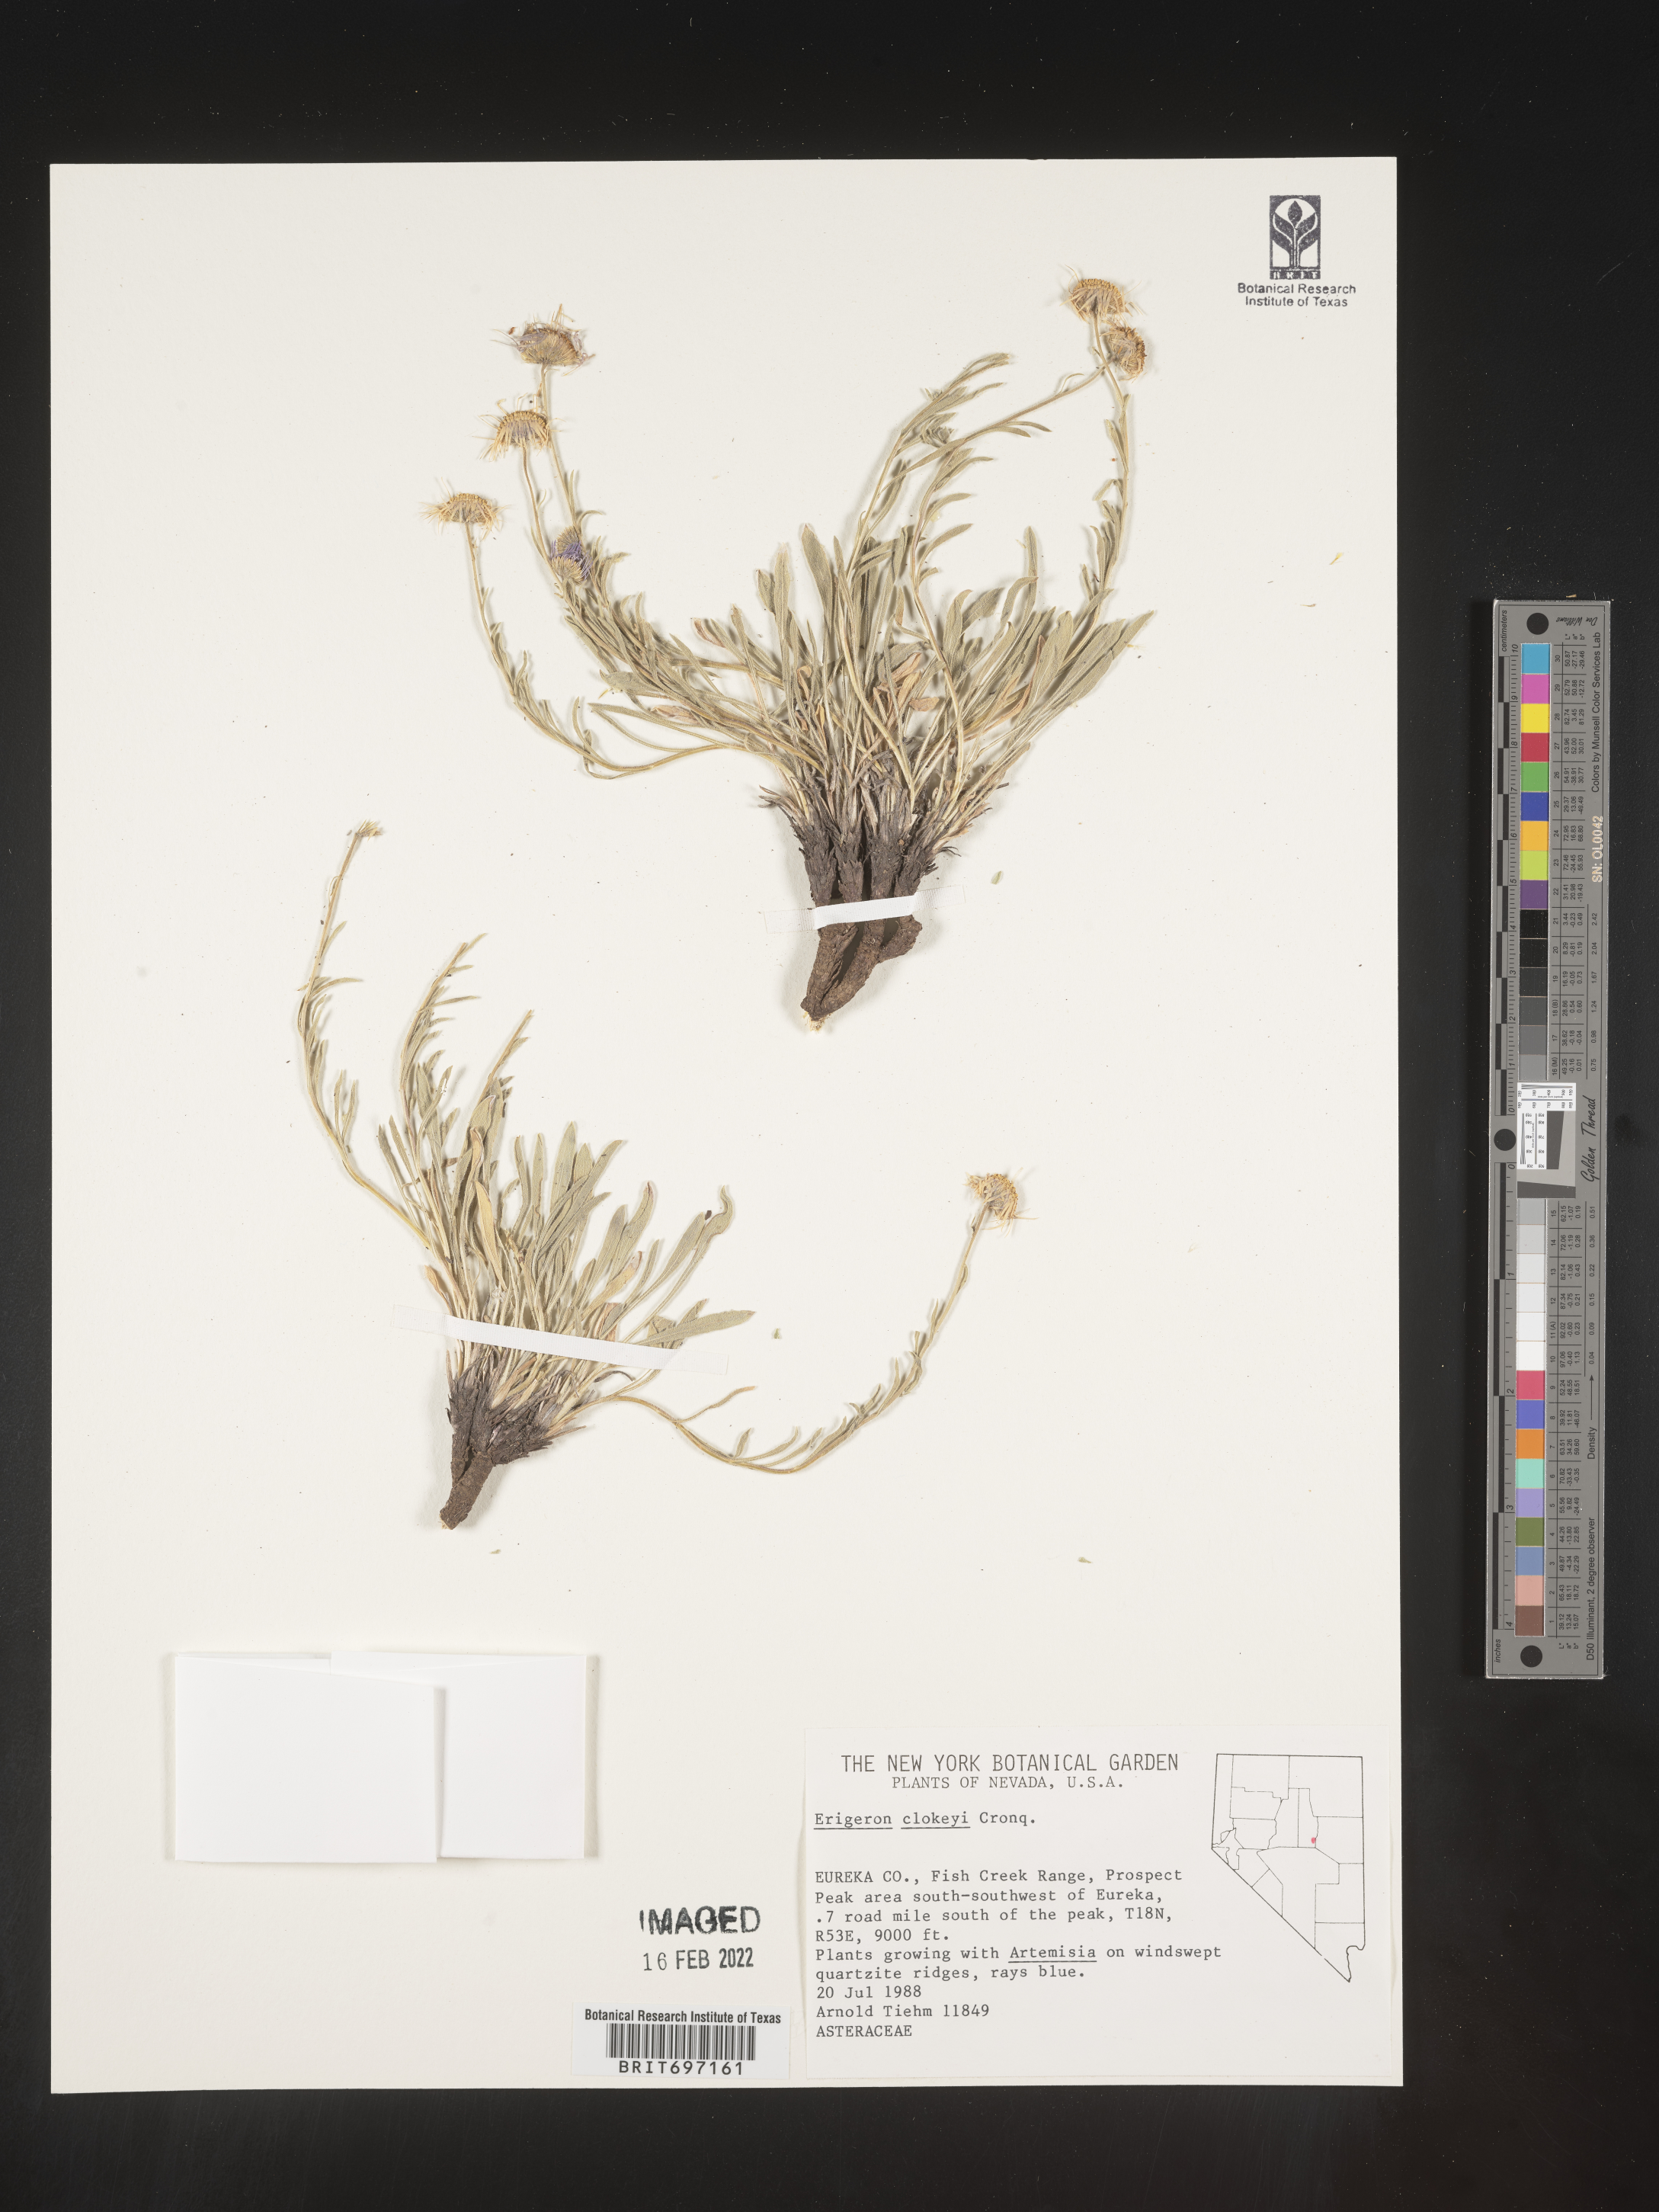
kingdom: Plantae
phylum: Tracheophyta
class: Magnoliopsida
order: Asterales
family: Asteraceae
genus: Erigeron
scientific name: Erigeron clokeyi
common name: Clokey's fleabane
